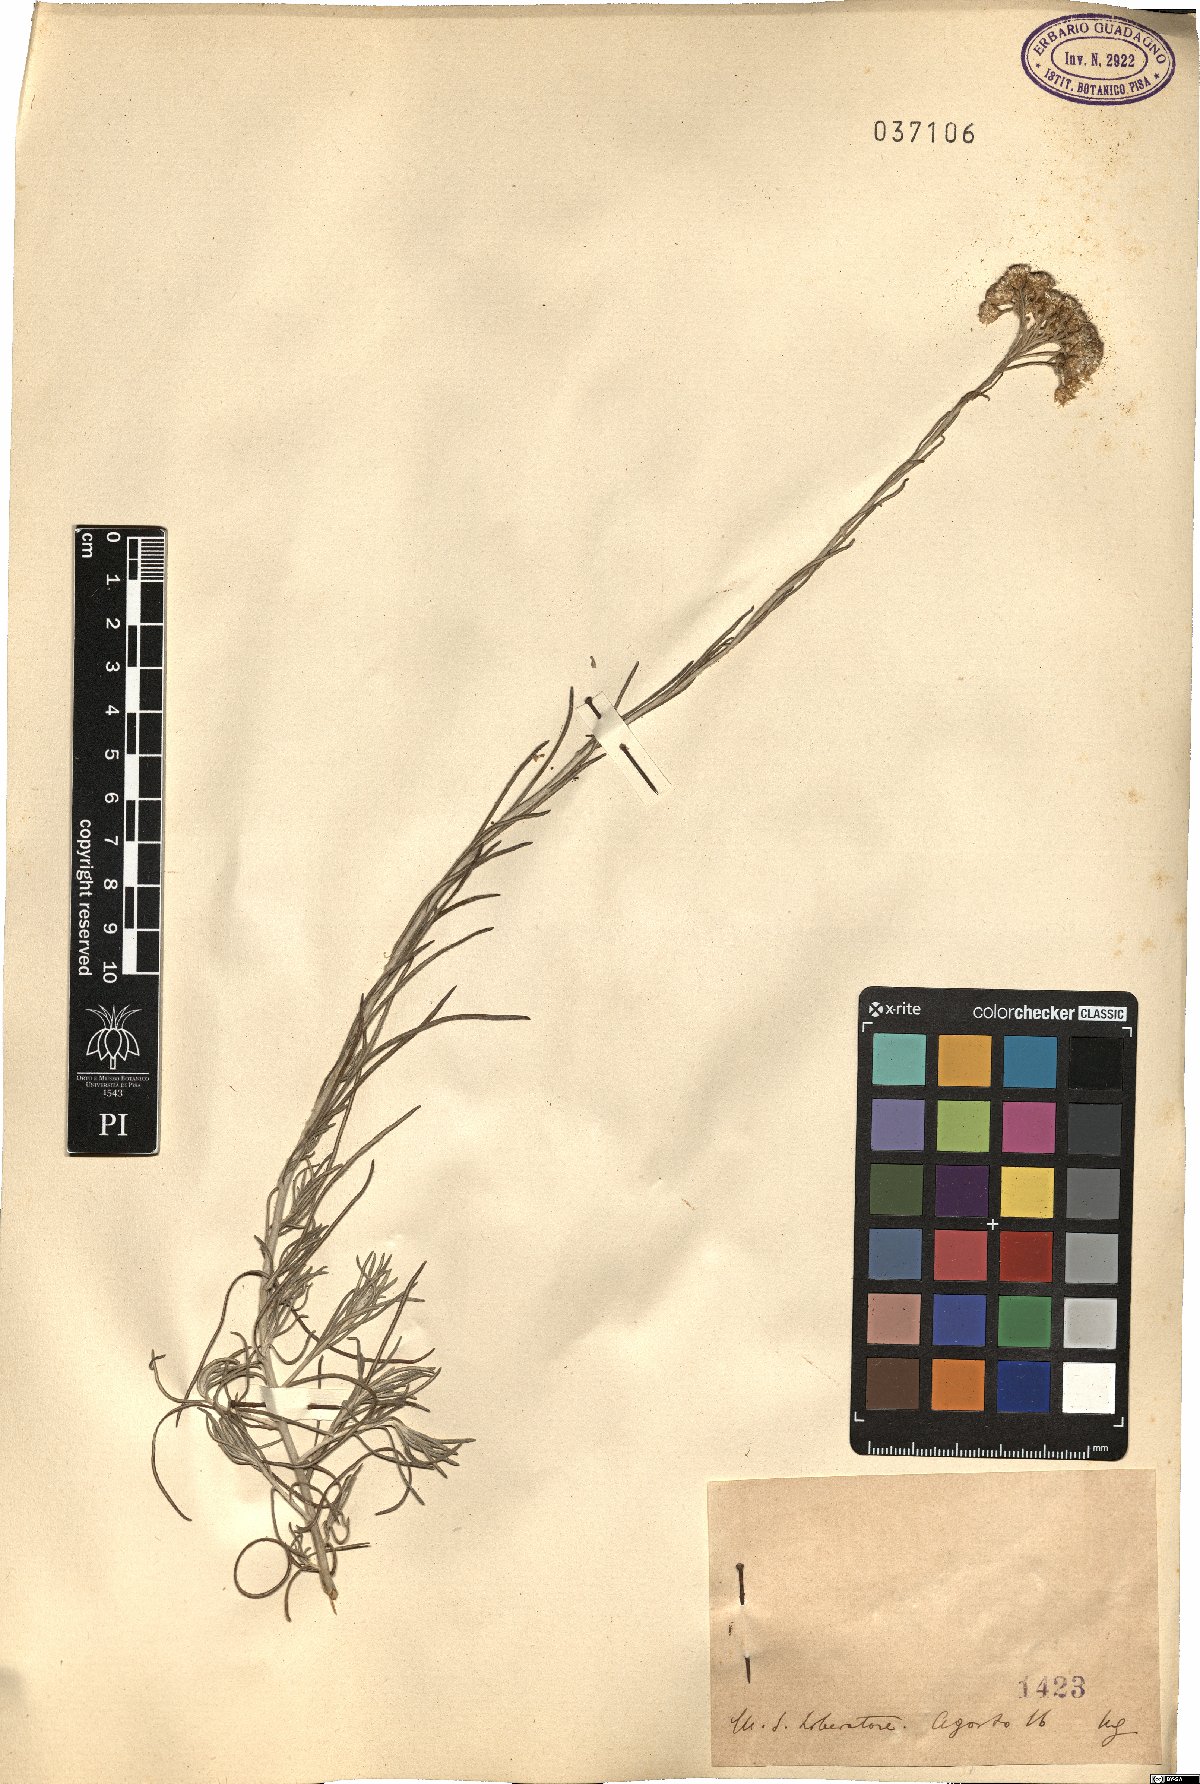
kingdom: Plantae
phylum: Tracheophyta
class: Magnoliopsida
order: Asterales
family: Asteraceae
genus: Helichrysum
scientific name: Helichrysum
